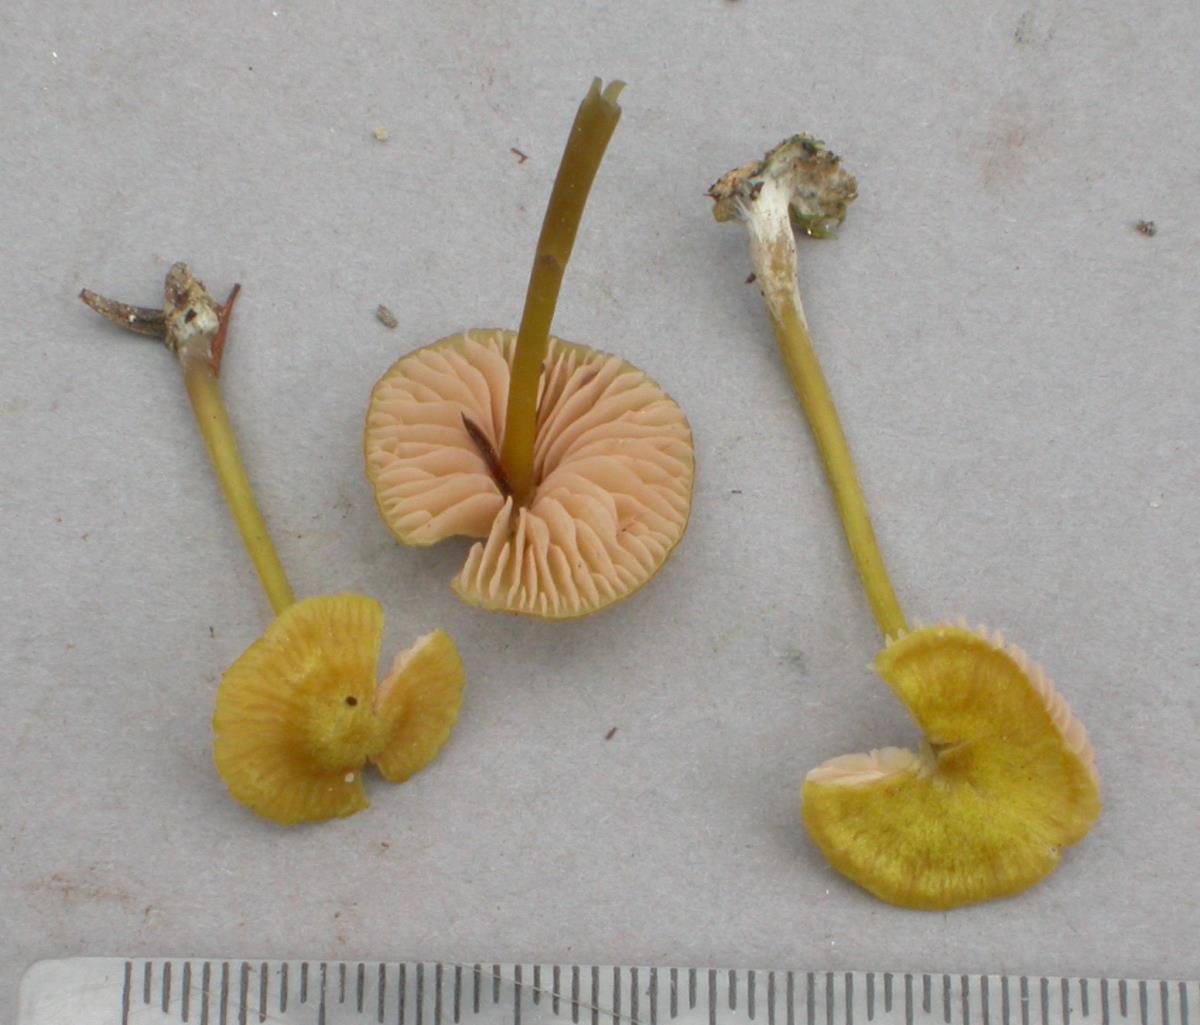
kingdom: Fungi
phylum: Basidiomycota
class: Agaricomycetes
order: Agaricales
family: Entolomataceae
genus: Entoloma
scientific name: Entoloma readiae
